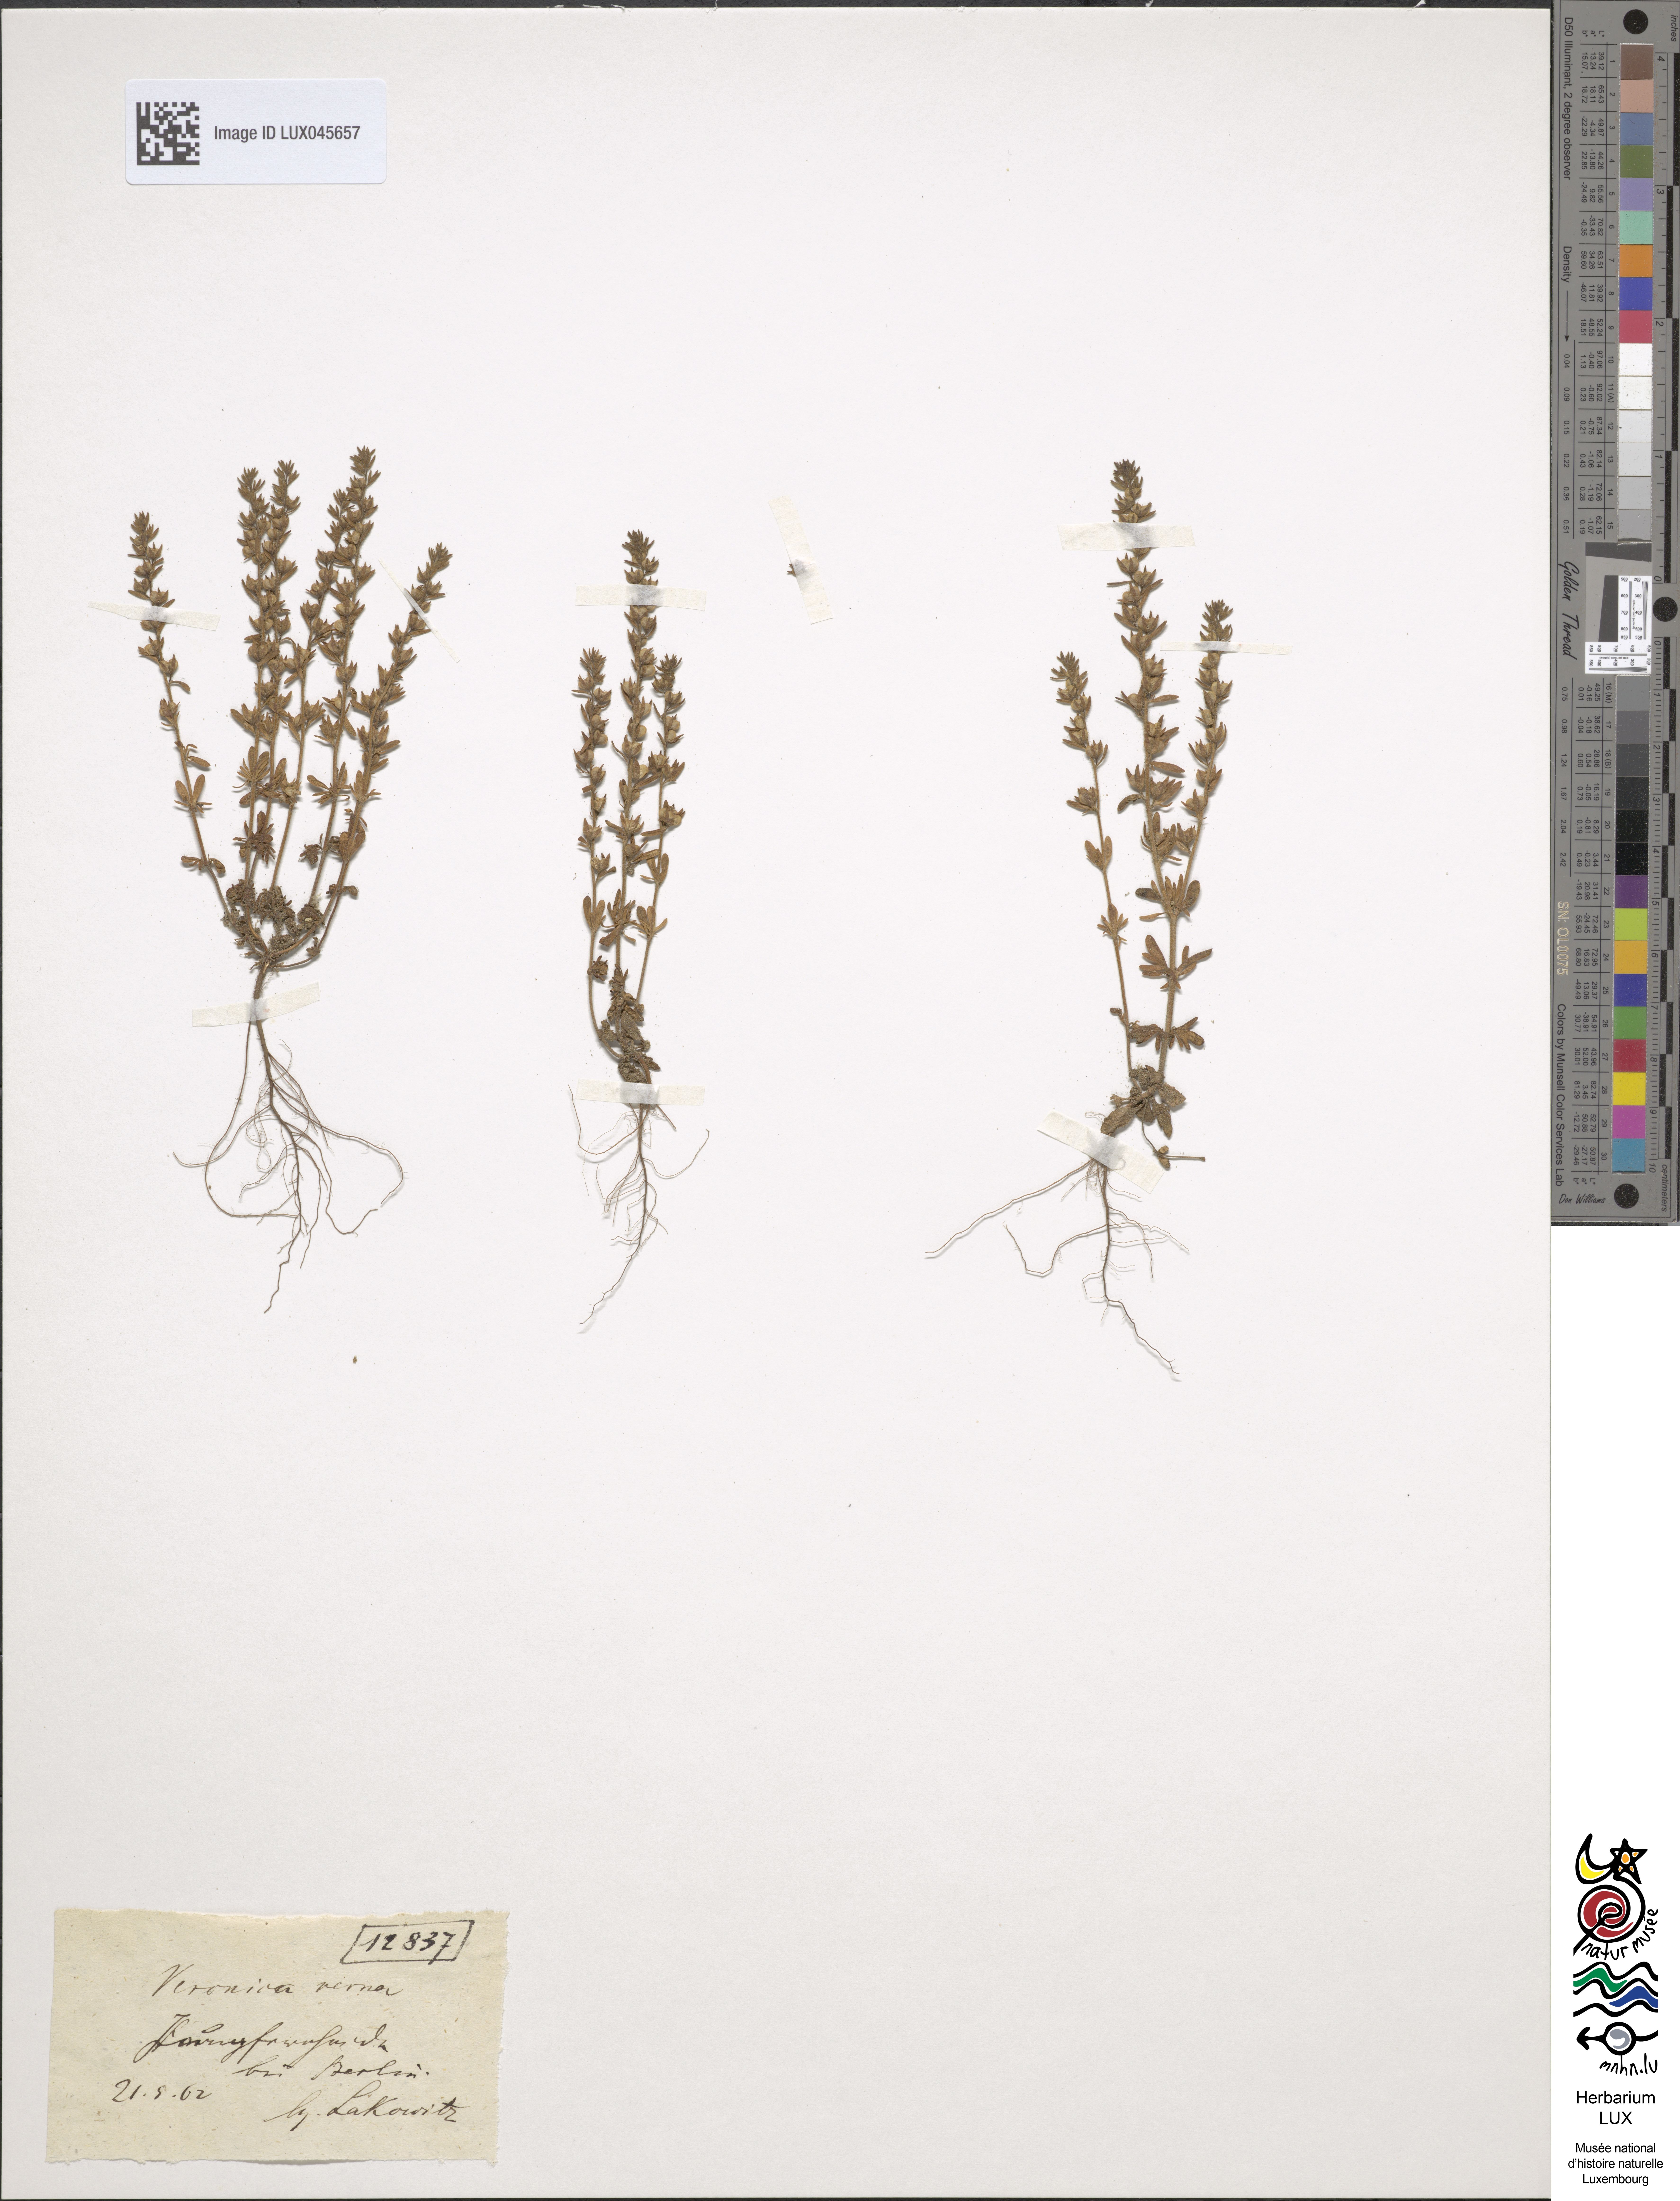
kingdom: Plantae
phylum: Tracheophyta
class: Magnoliopsida
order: Lamiales
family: Plantaginaceae
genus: Veronica
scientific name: Veronica verna
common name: Spring speedwell
